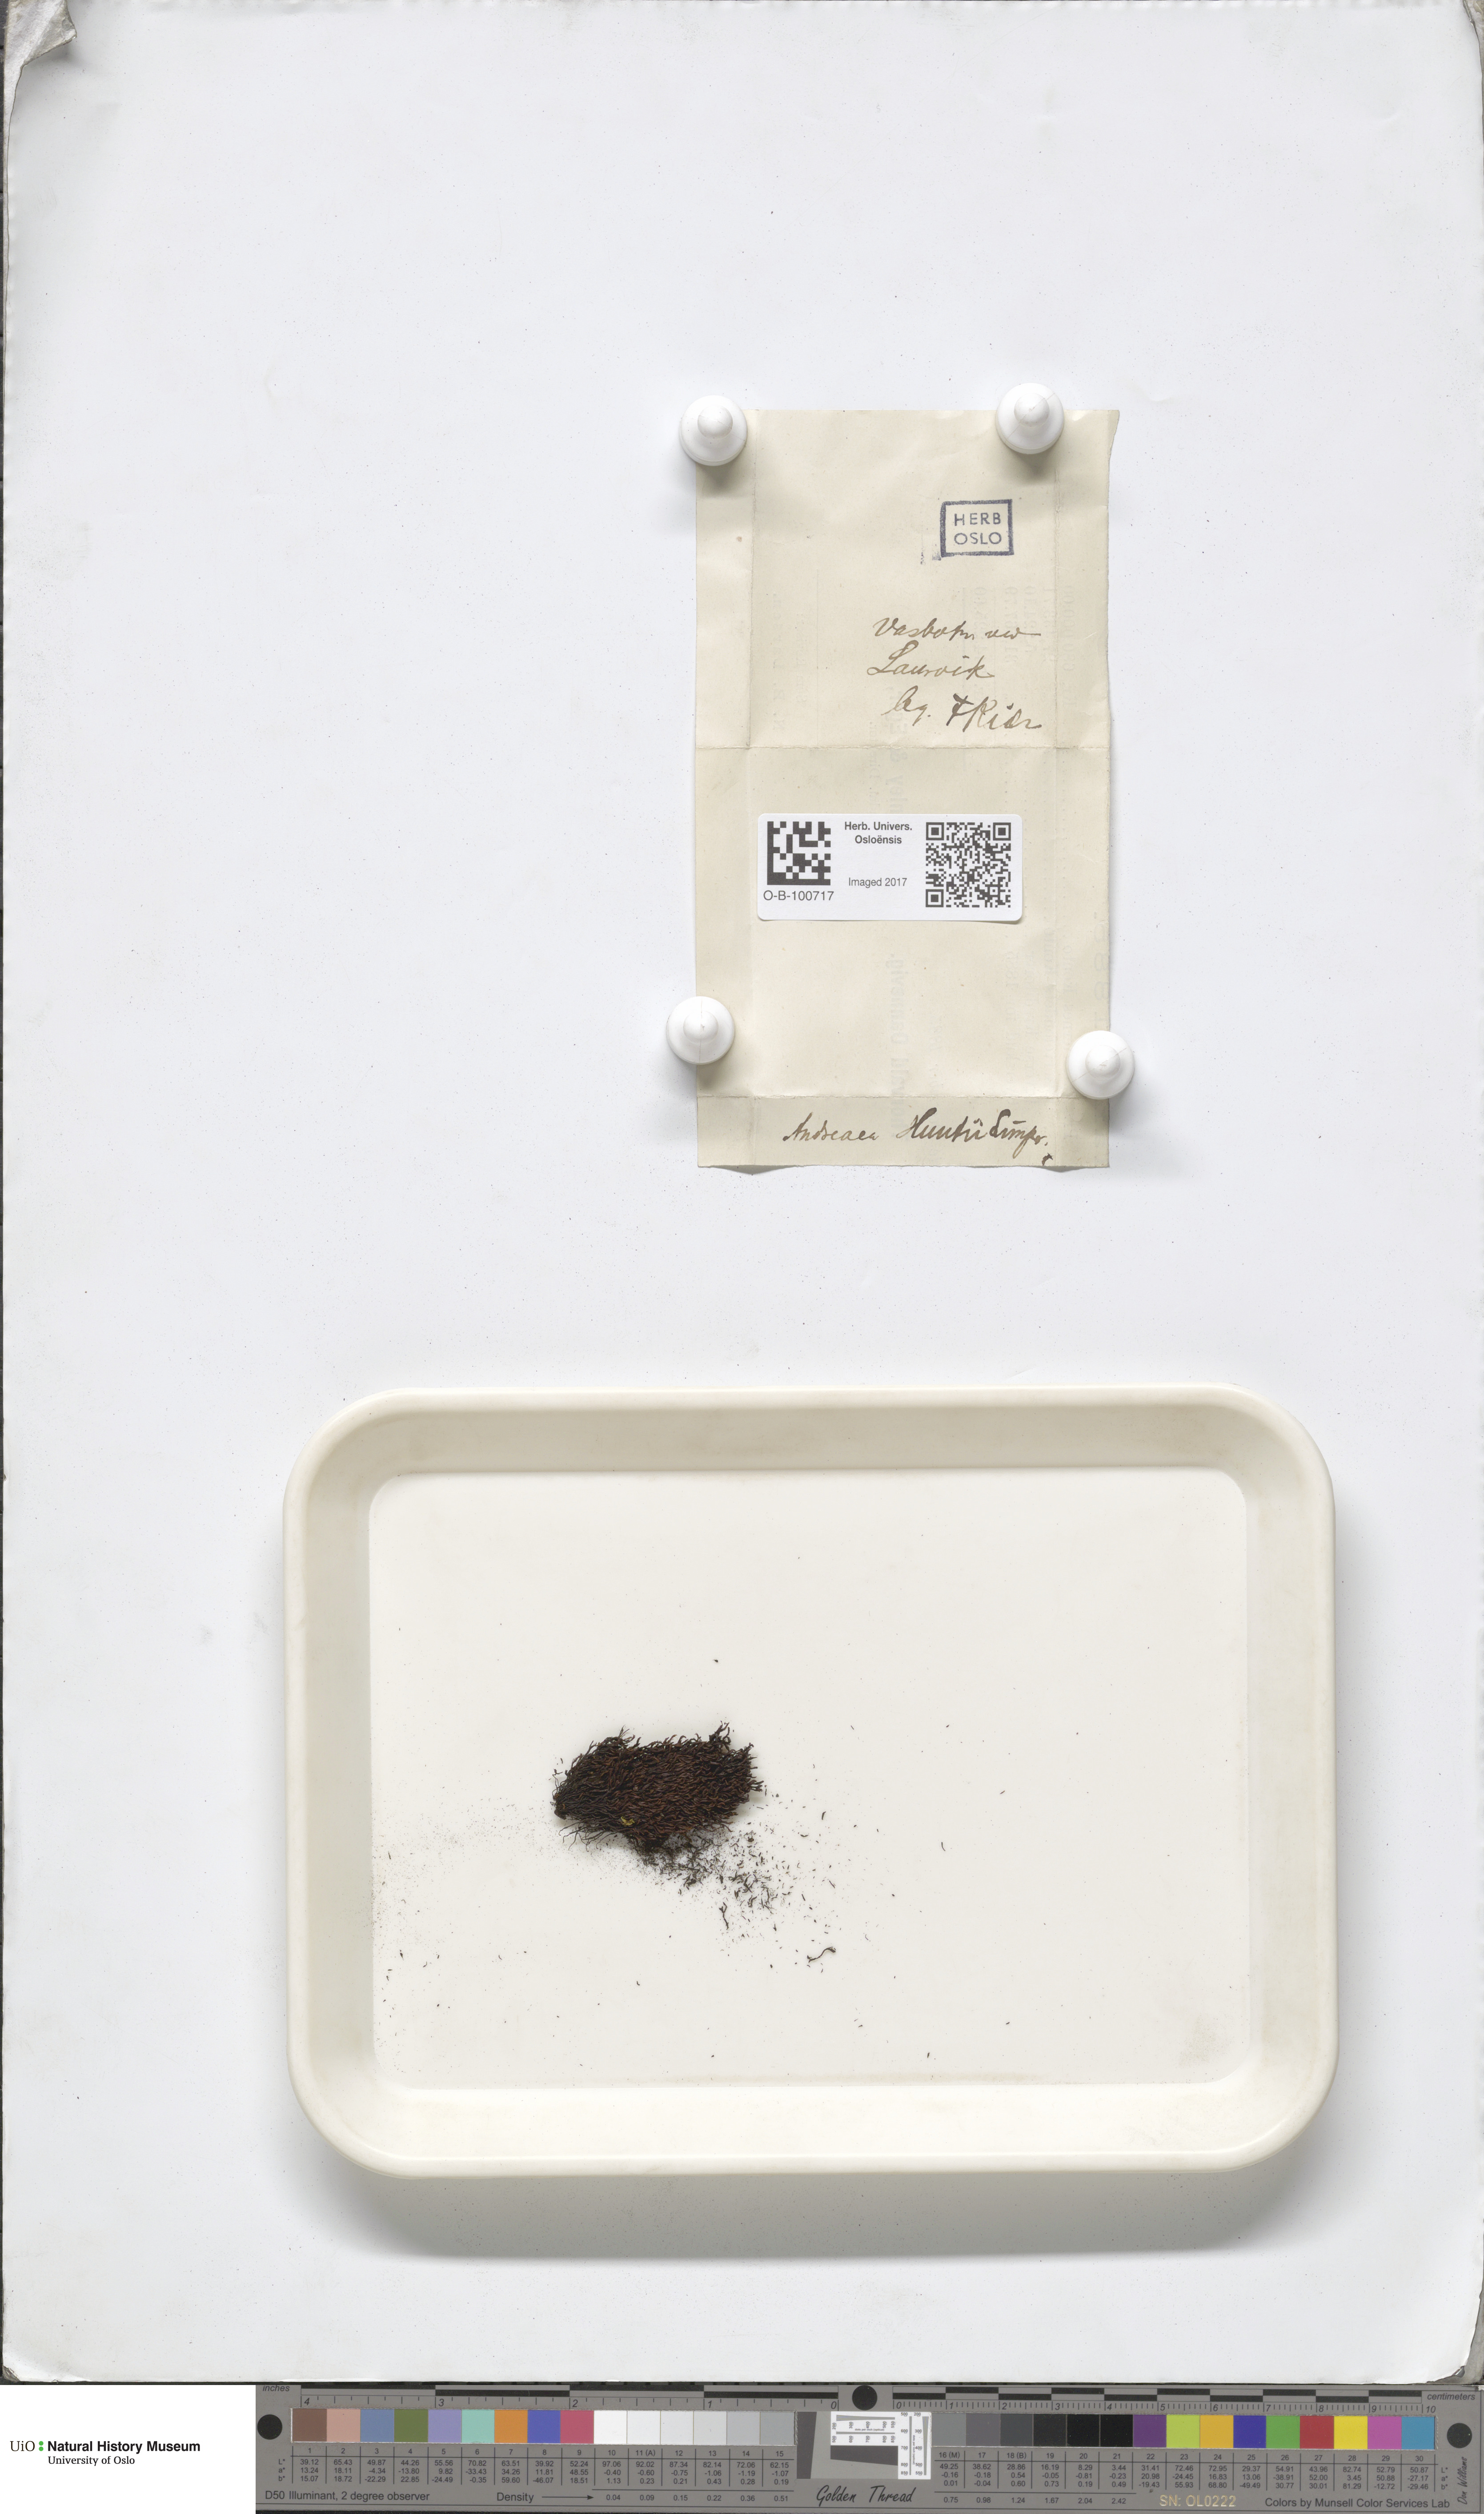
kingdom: Plantae
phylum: Bryophyta
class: Andreaeopsida
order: Andreaeales
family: Andreaeaceae
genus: Andreaea
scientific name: Andreaea rothii
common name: Dusky rock moss
